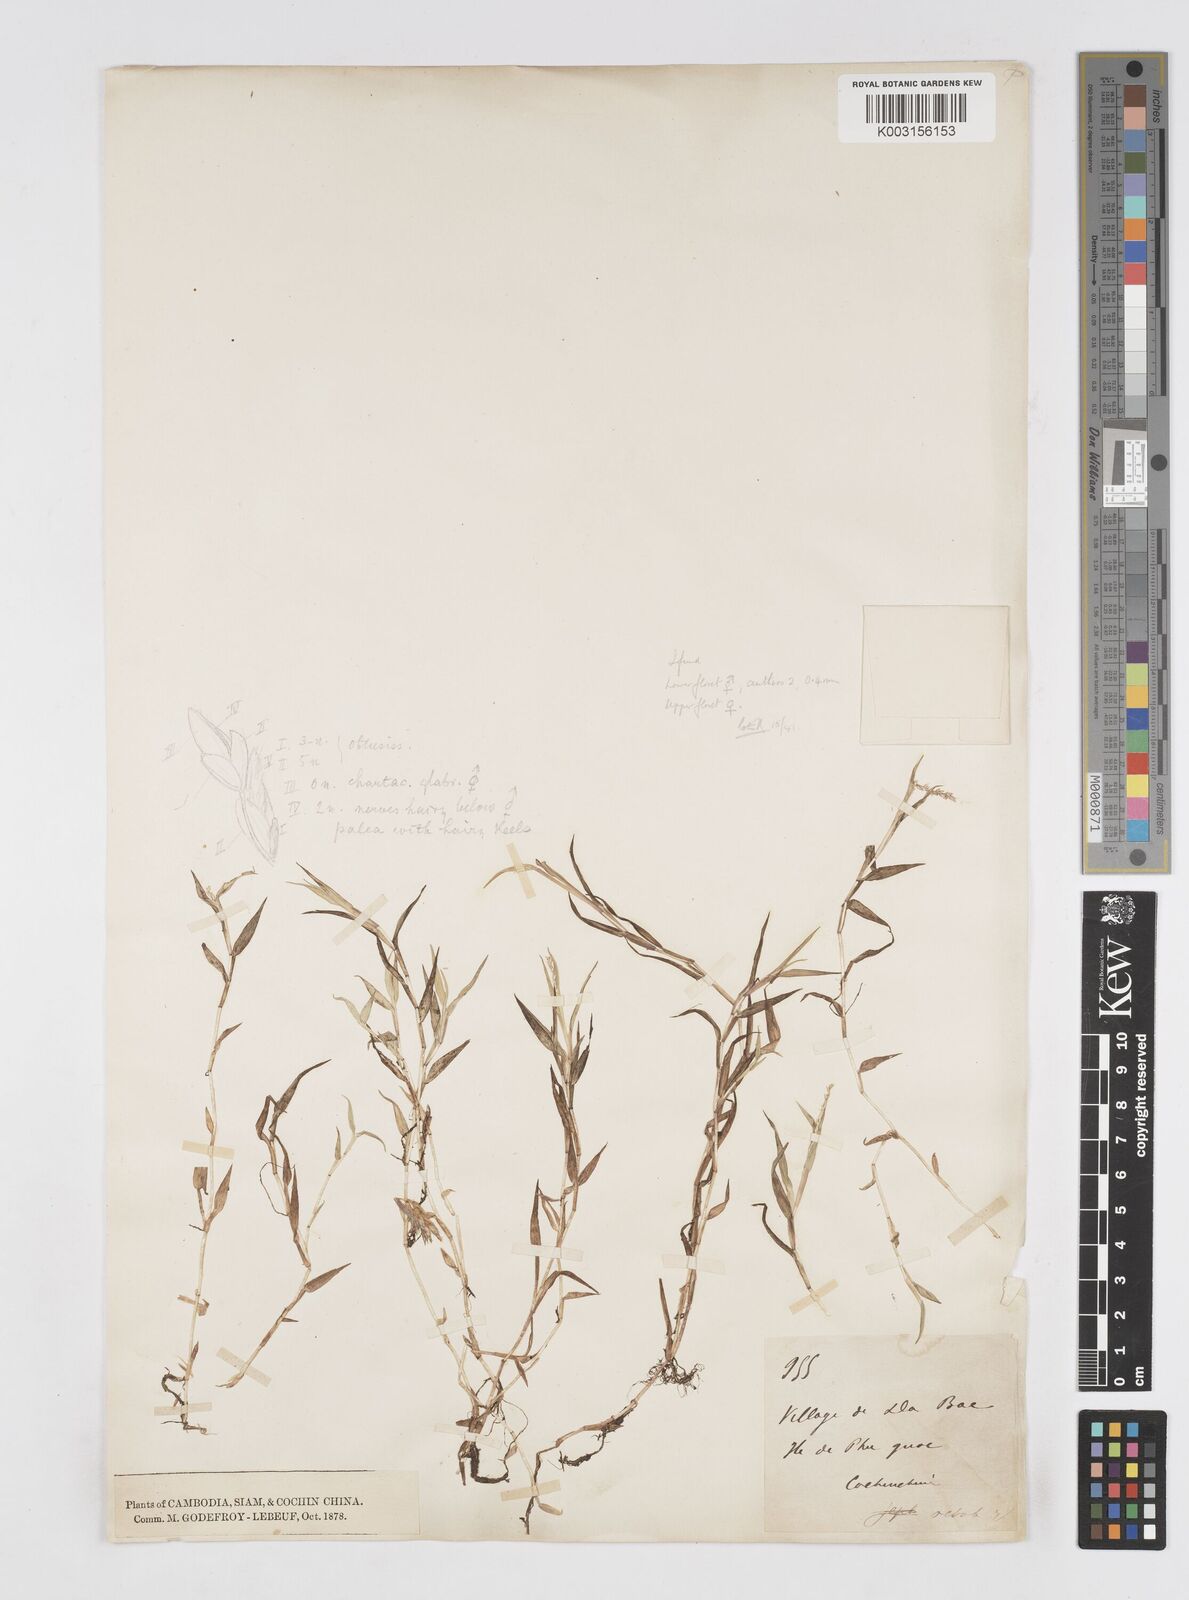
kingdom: Plantae
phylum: Tracheophyta
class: Liliopsida
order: Poales
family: Poaceae
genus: Coelachne
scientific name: Coelachne simpliciuscula
